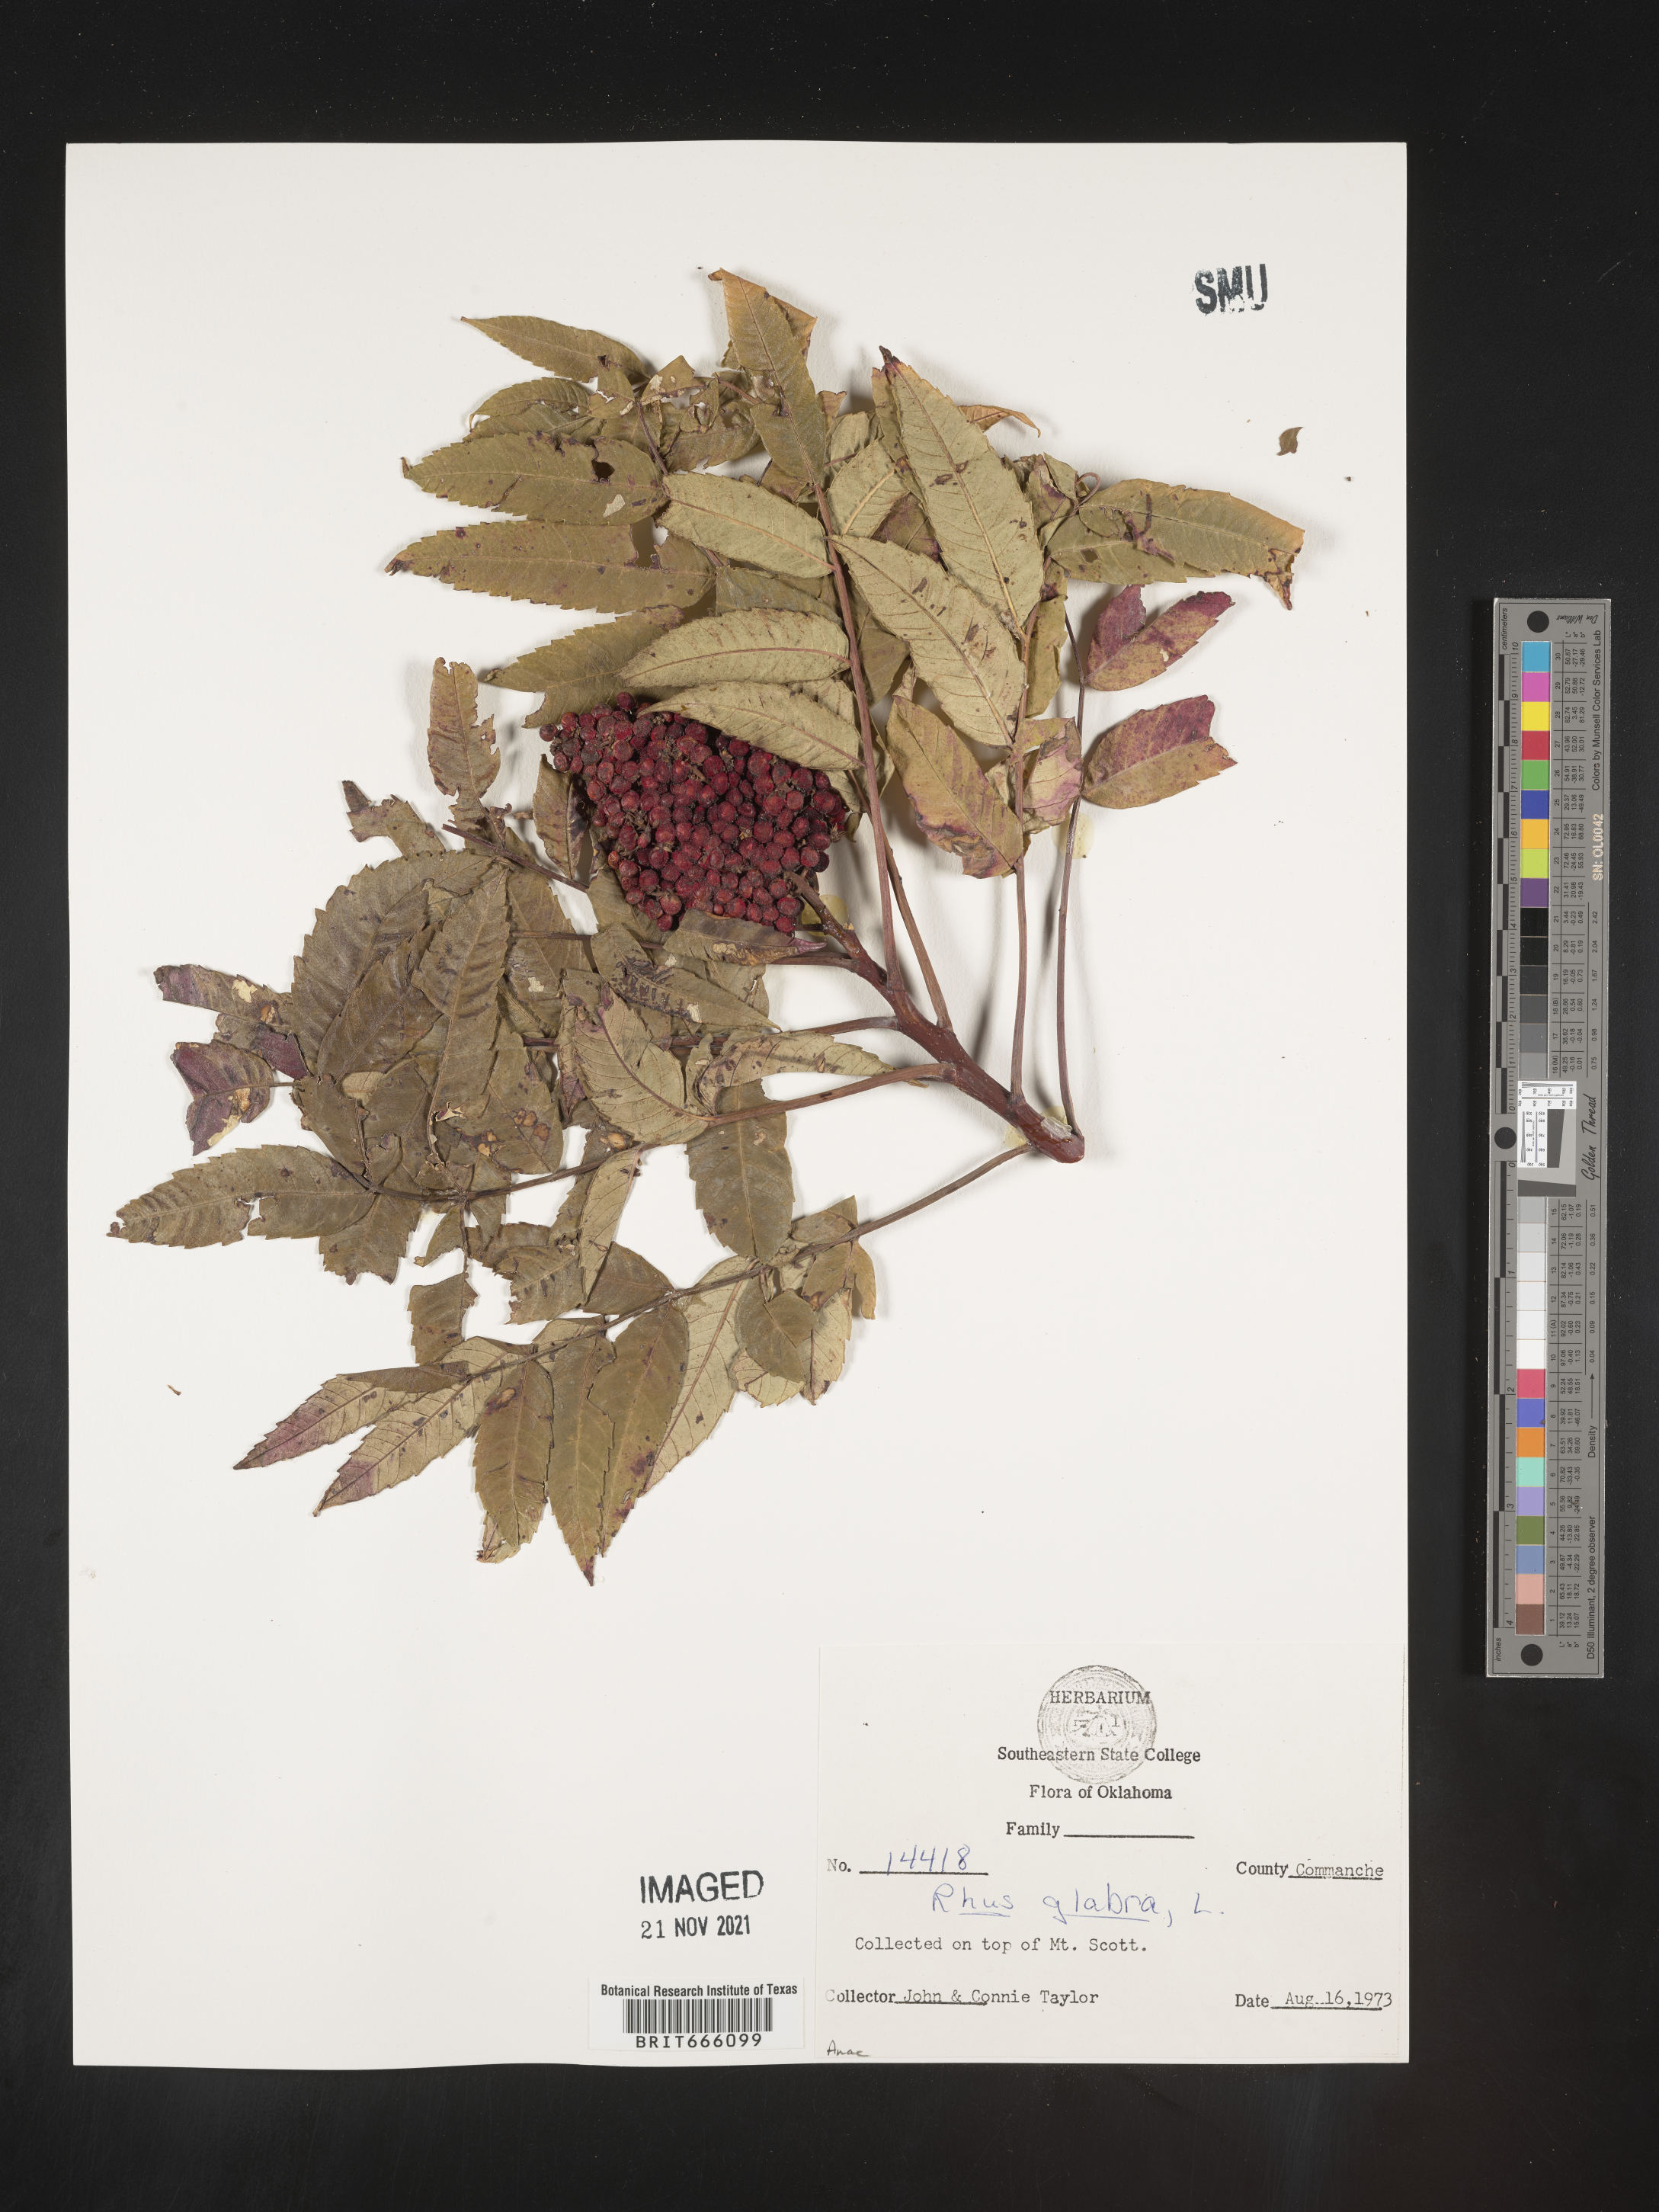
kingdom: Plantae
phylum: Tracheophyta
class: Magnoliopsida
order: Sapindales
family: Anacardiaceae
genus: Rhus
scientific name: Rhus glabra
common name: Scarlet sumac
